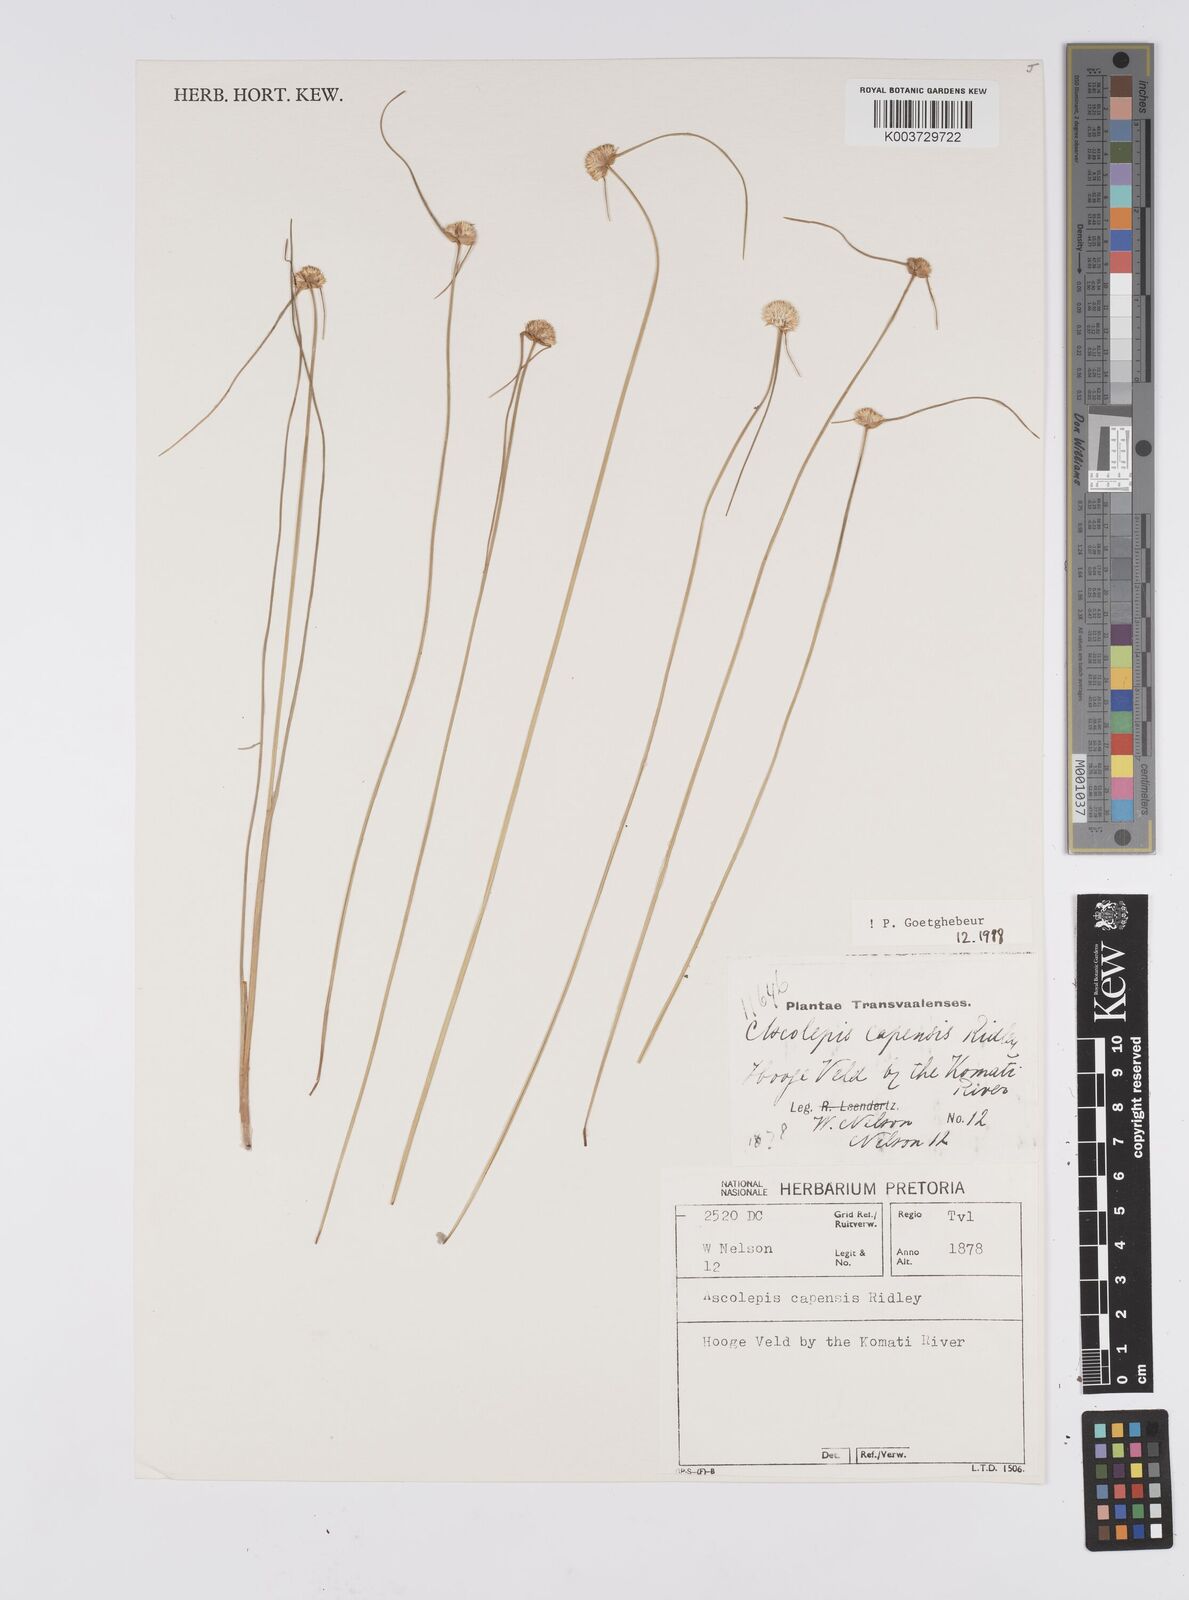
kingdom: Plantae
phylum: Tracheophyta
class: Liliopsida
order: Poales
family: Cyperaceae
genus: Cyperus
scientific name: Cyperus capensis
